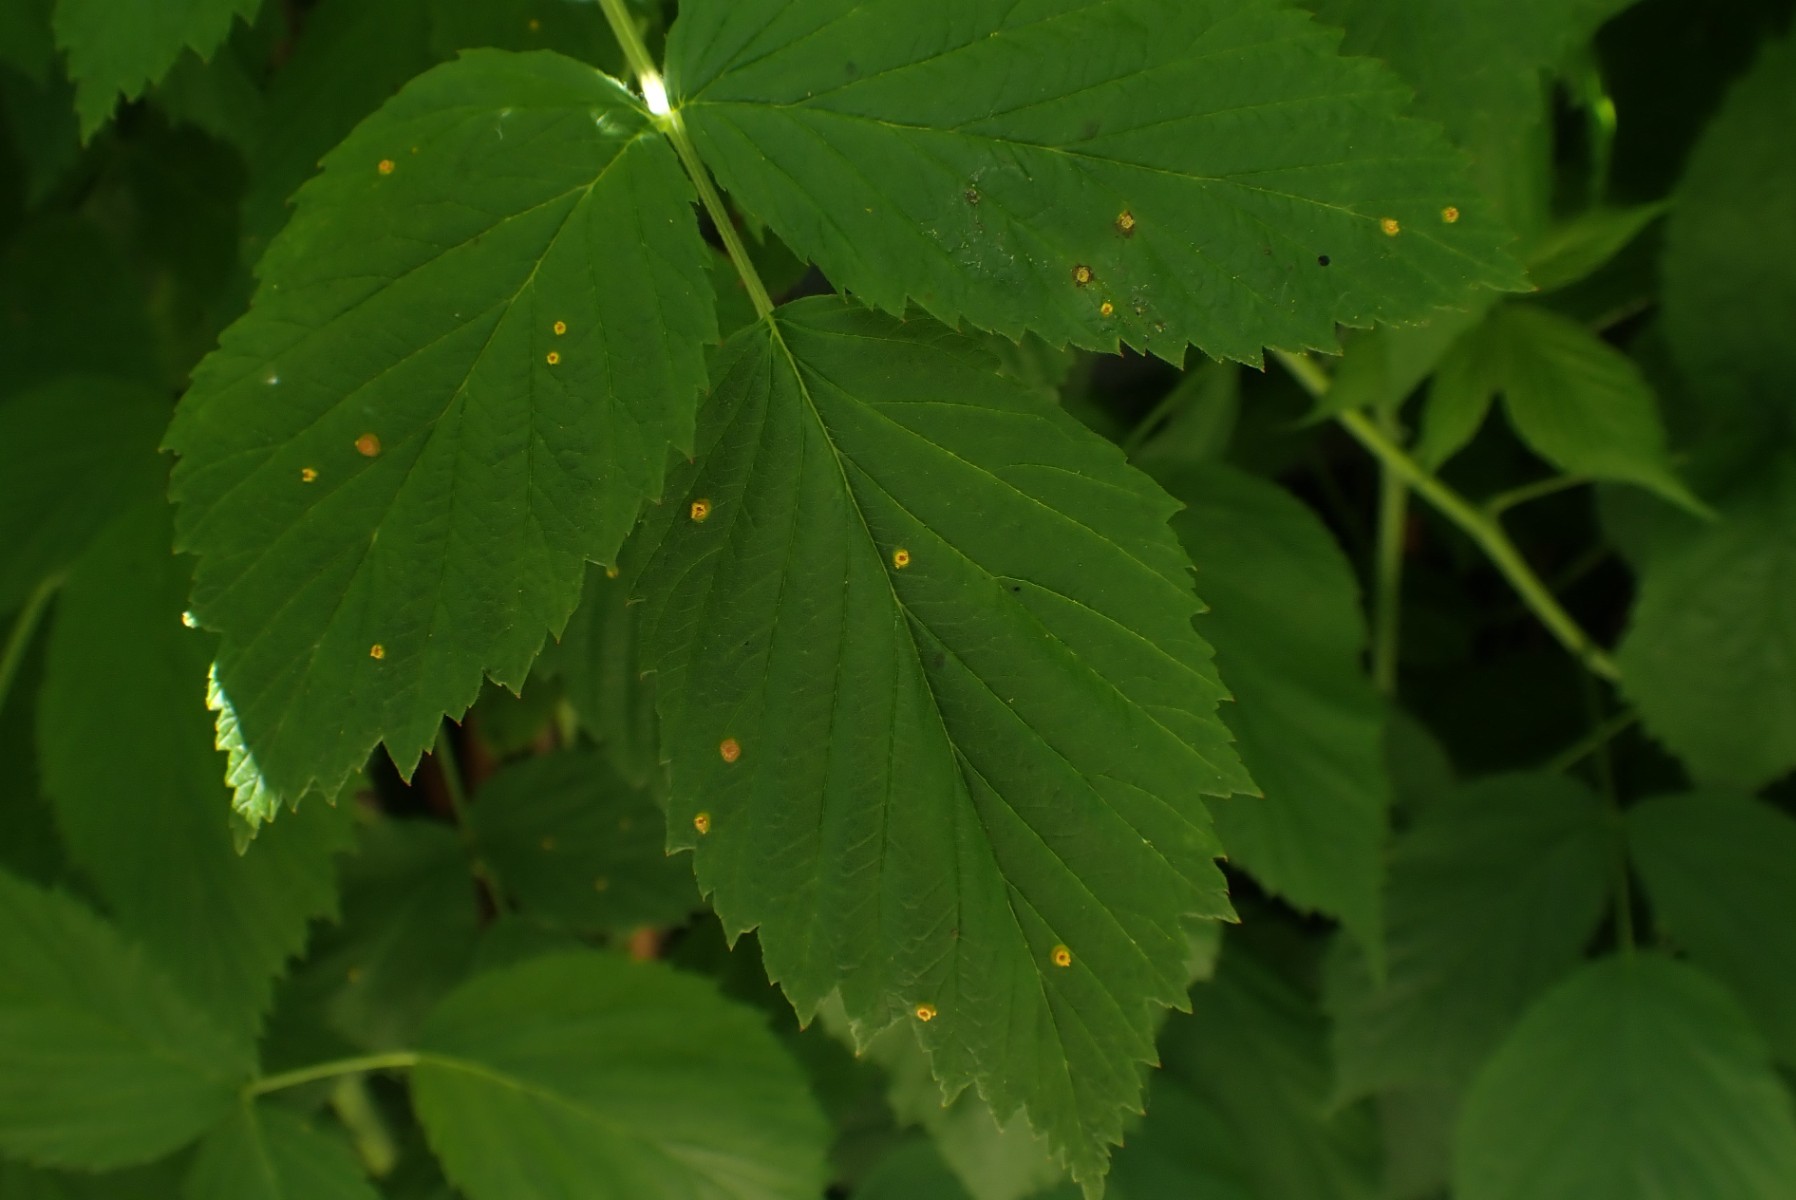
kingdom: Fungi
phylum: Basidiomycota
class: Pucciniomycetes
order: Pucciniales
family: Phragmidiaceae
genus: Phragmidium
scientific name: Phragmidium rubi-idaei
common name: hindbær-flercellerust
